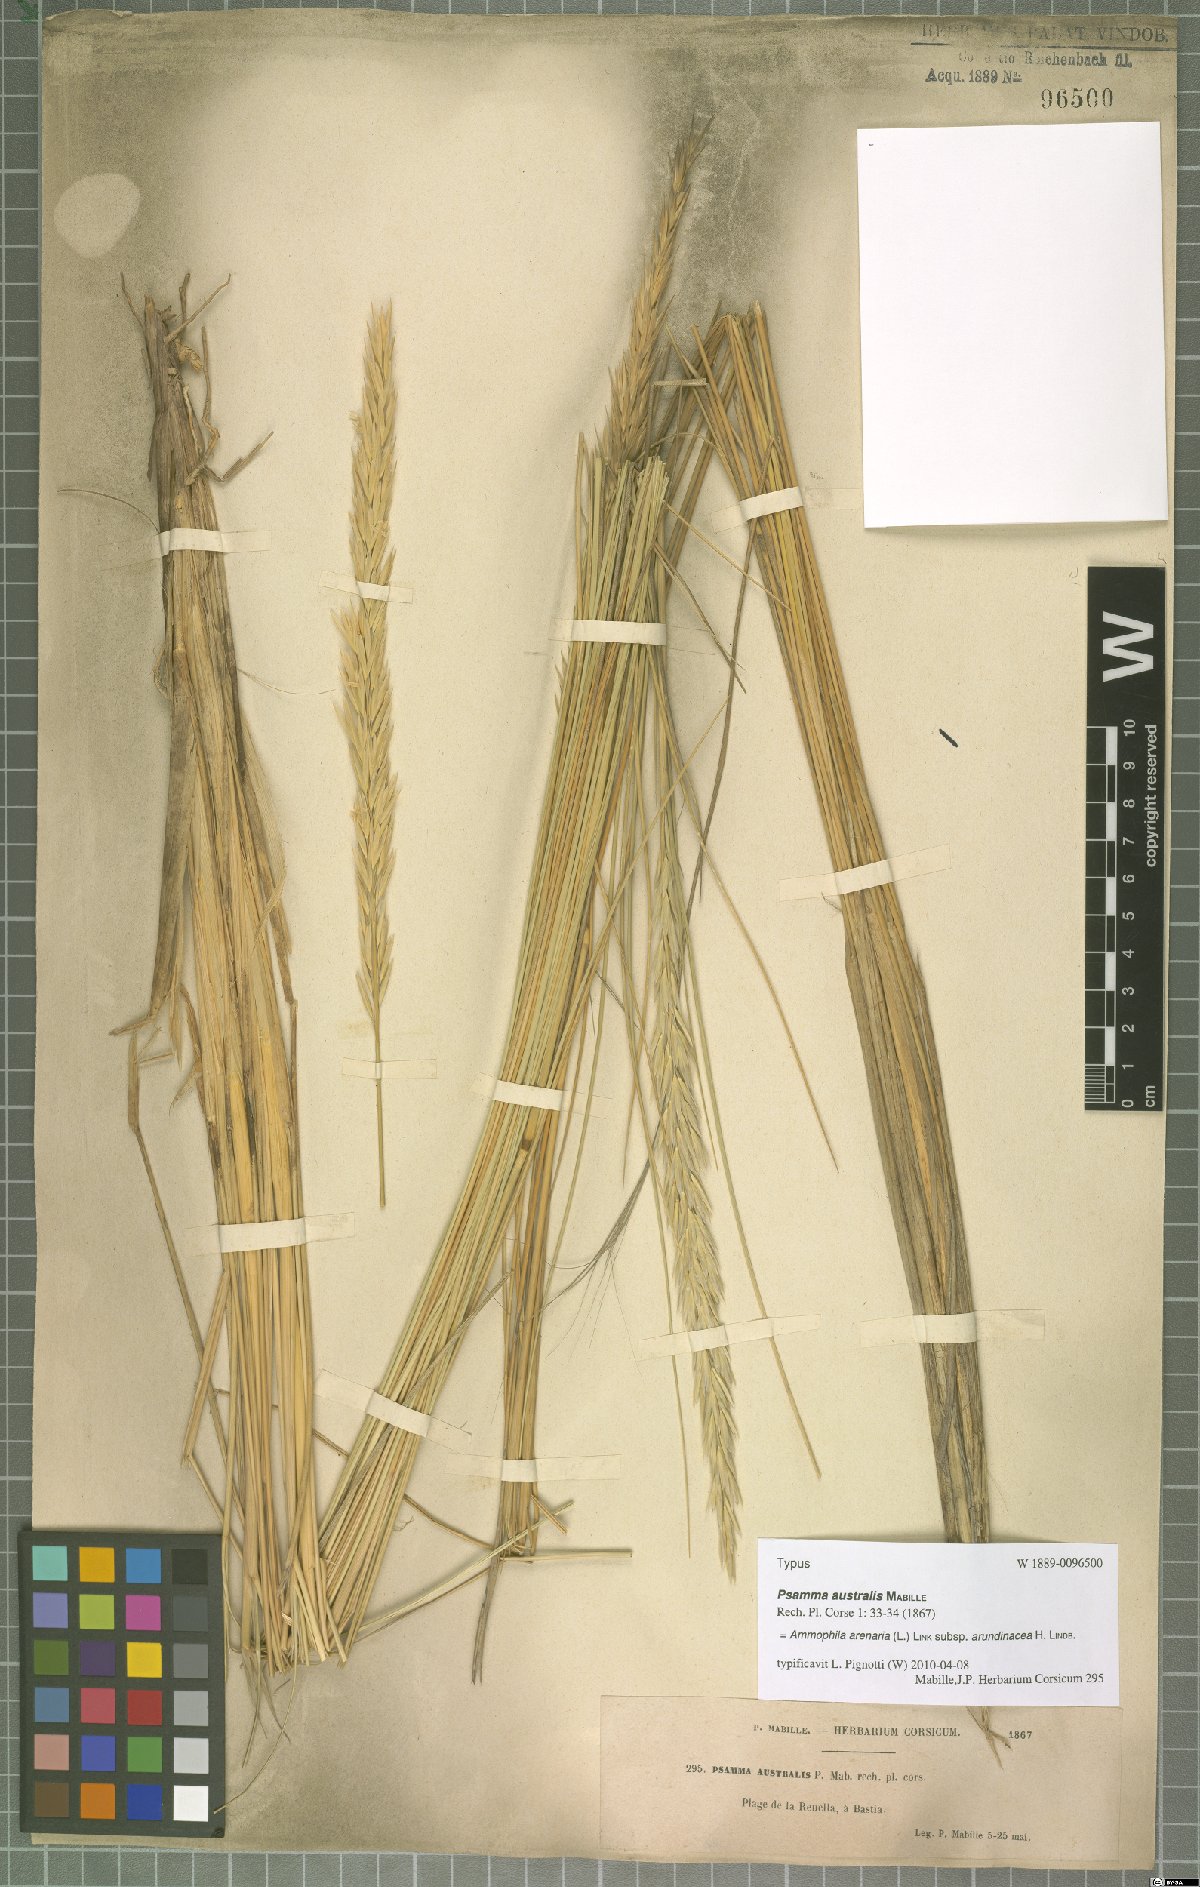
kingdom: Plantae
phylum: Tracheophyta
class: Liliopsida
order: Poales
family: Poaceae
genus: Calamagrostis
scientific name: Calamagrostis arenaria
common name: European beachgrass
